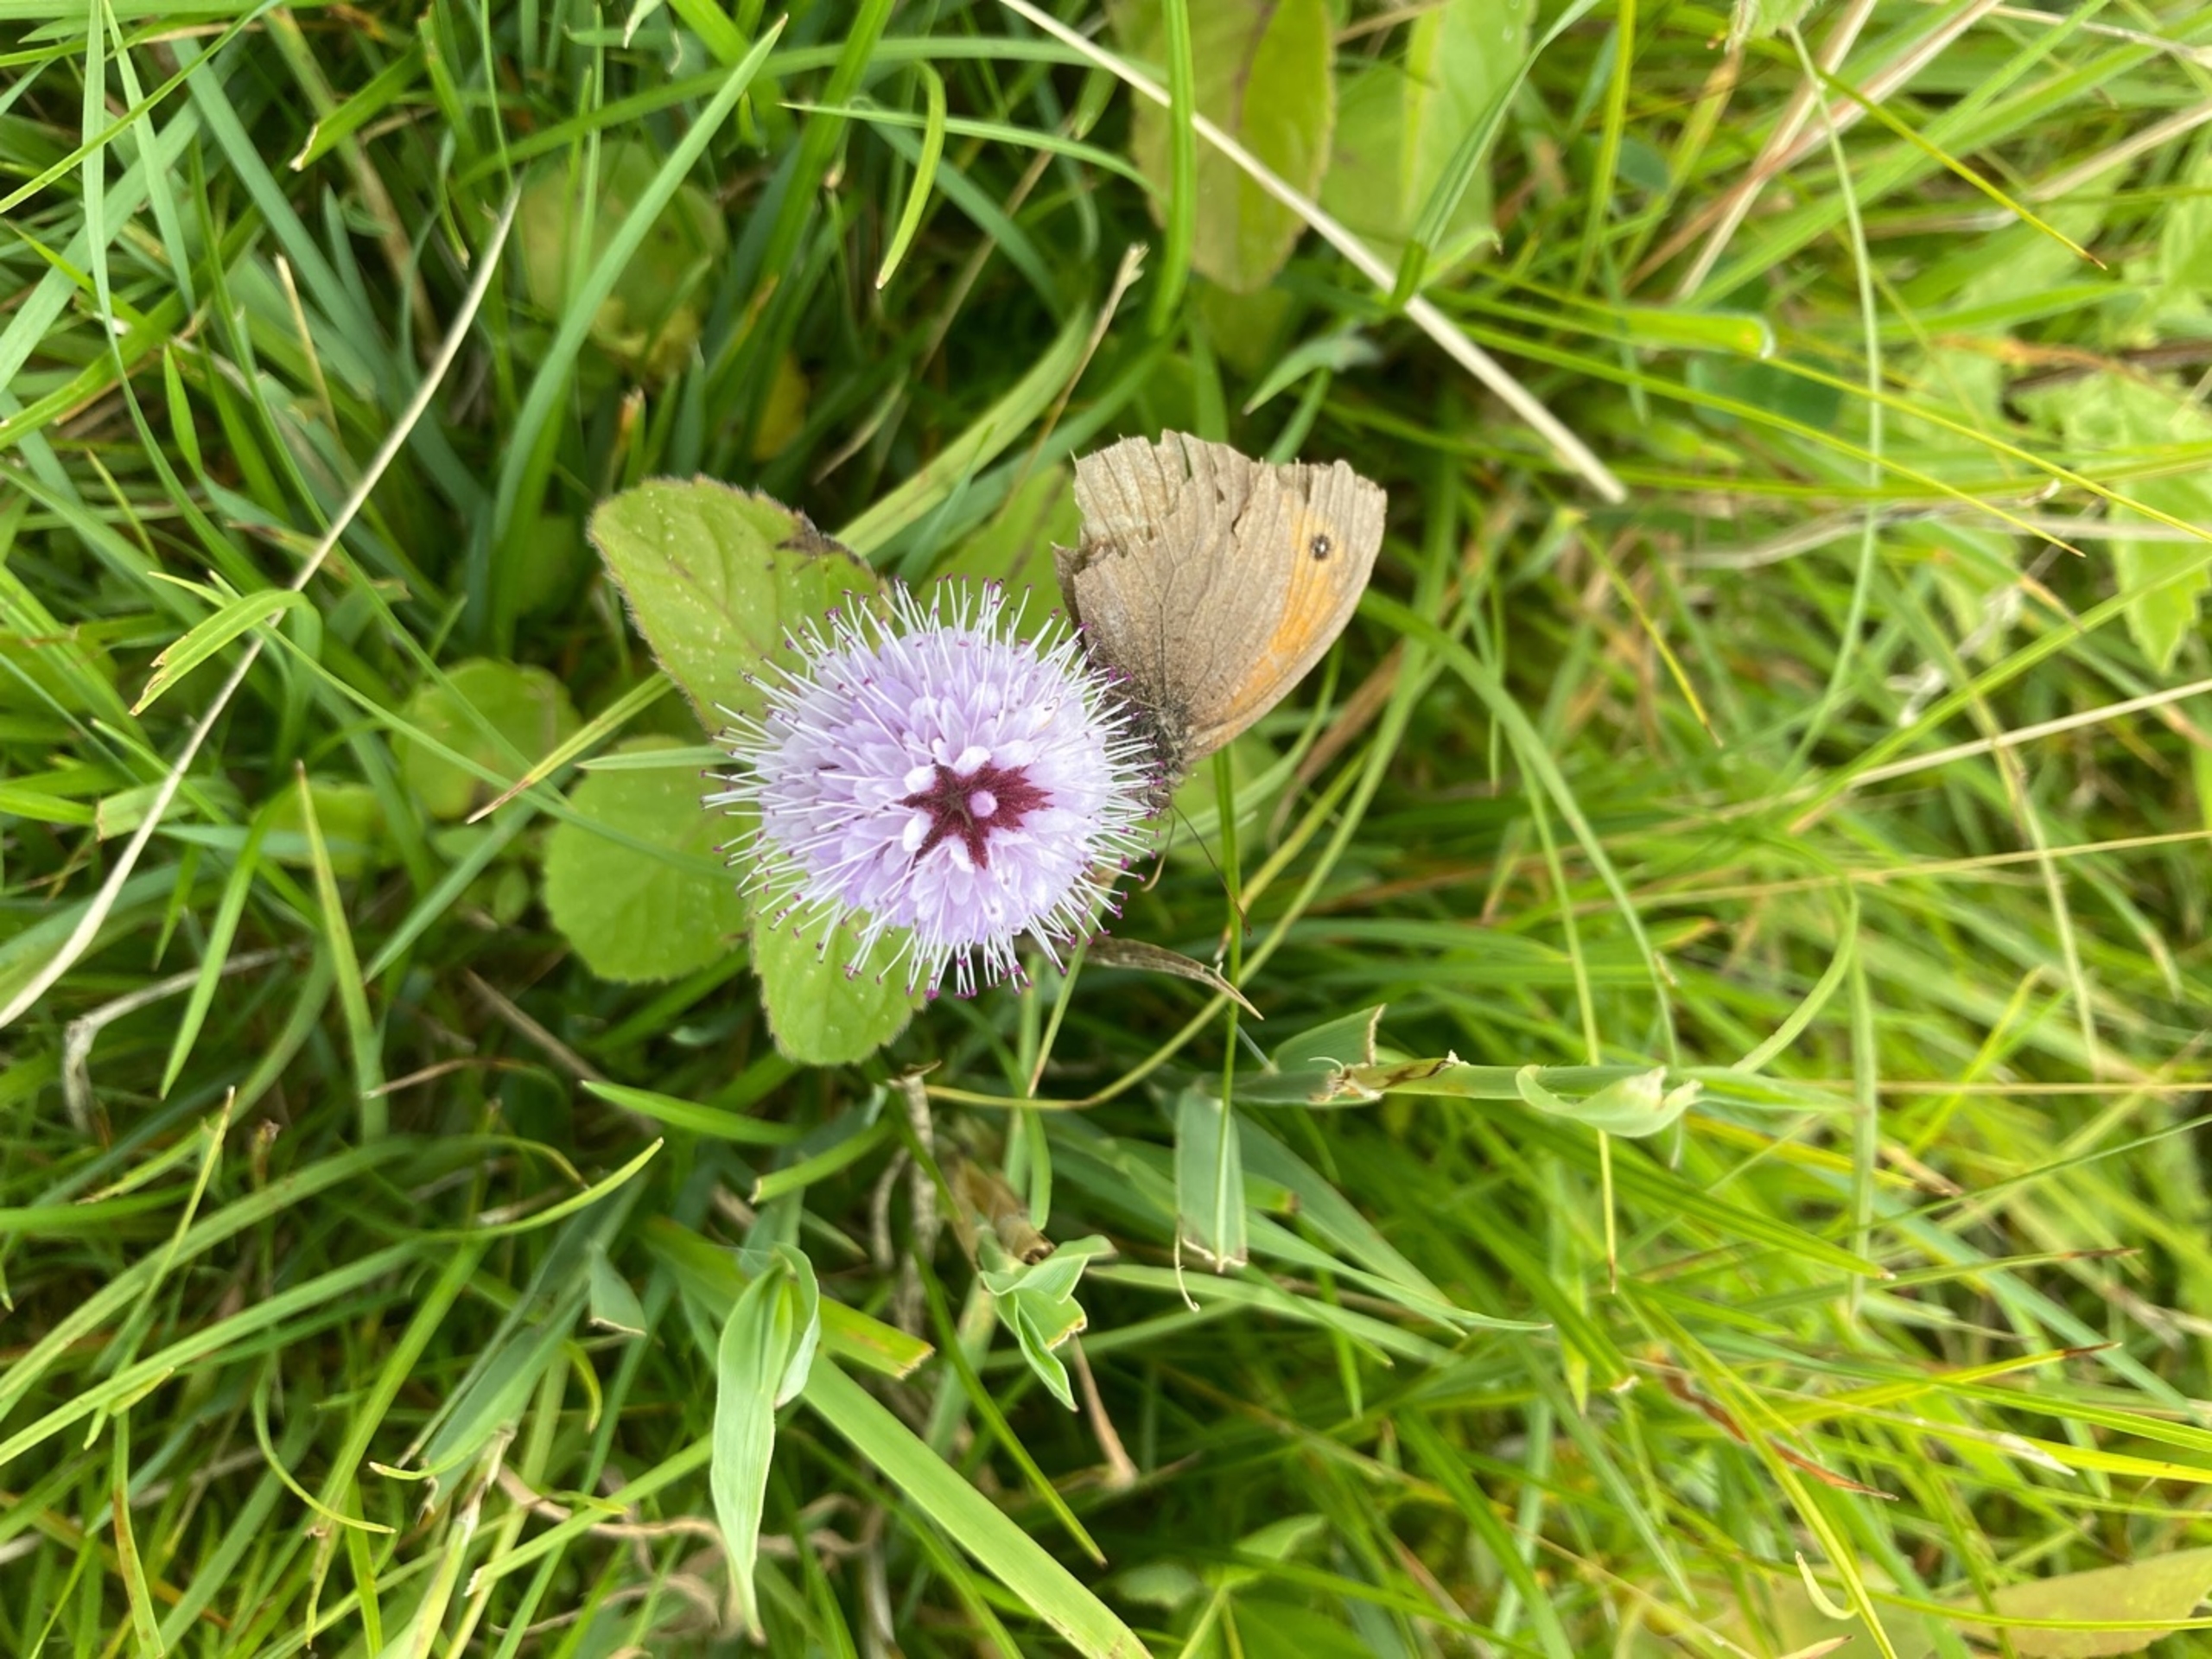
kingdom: Plantae
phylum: Tracheophyta
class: Magnoliopsida
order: Lamiales
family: Lamiaceae
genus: Mentha
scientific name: Mentha aquatica
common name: Vand-mynte
